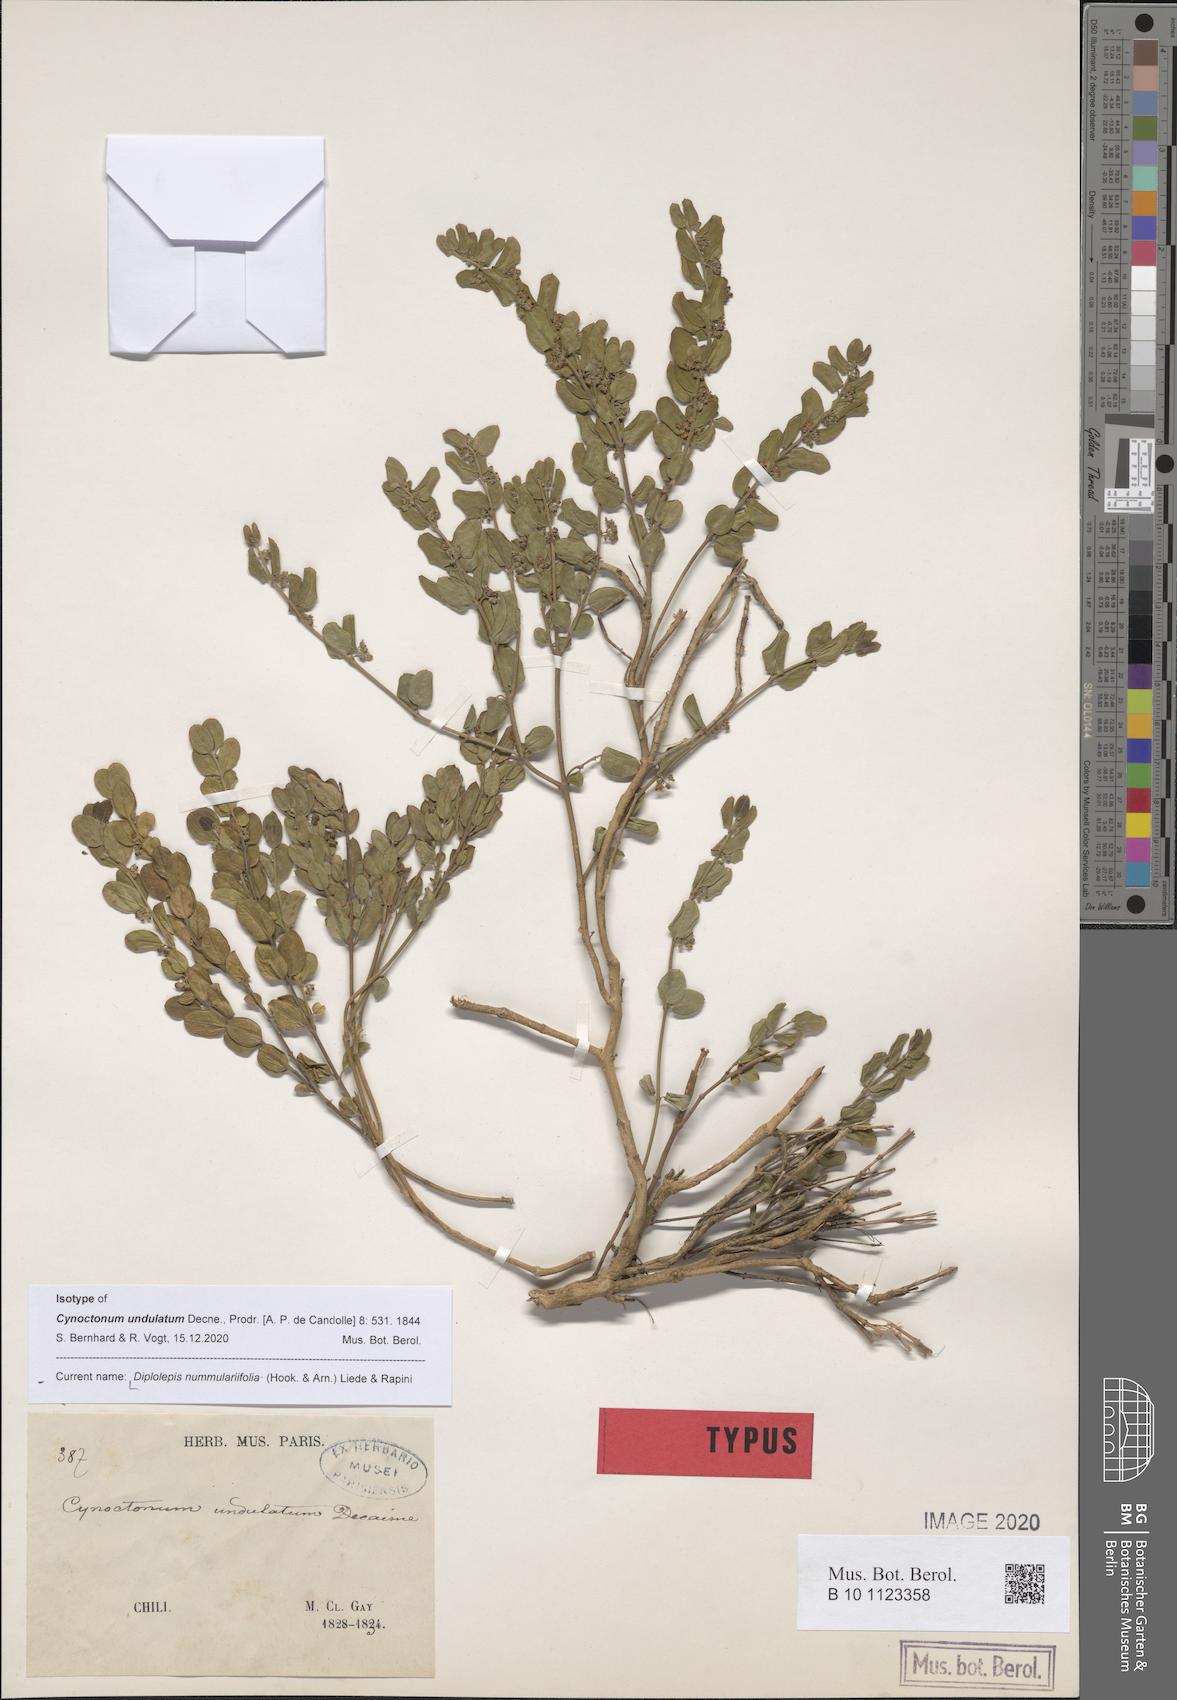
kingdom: Plantae
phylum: Tracheophyta
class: Magnoliopsida
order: Gentianales
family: Apocynaceae
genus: Diplolepis
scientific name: Diplolepis nummulariifolia
